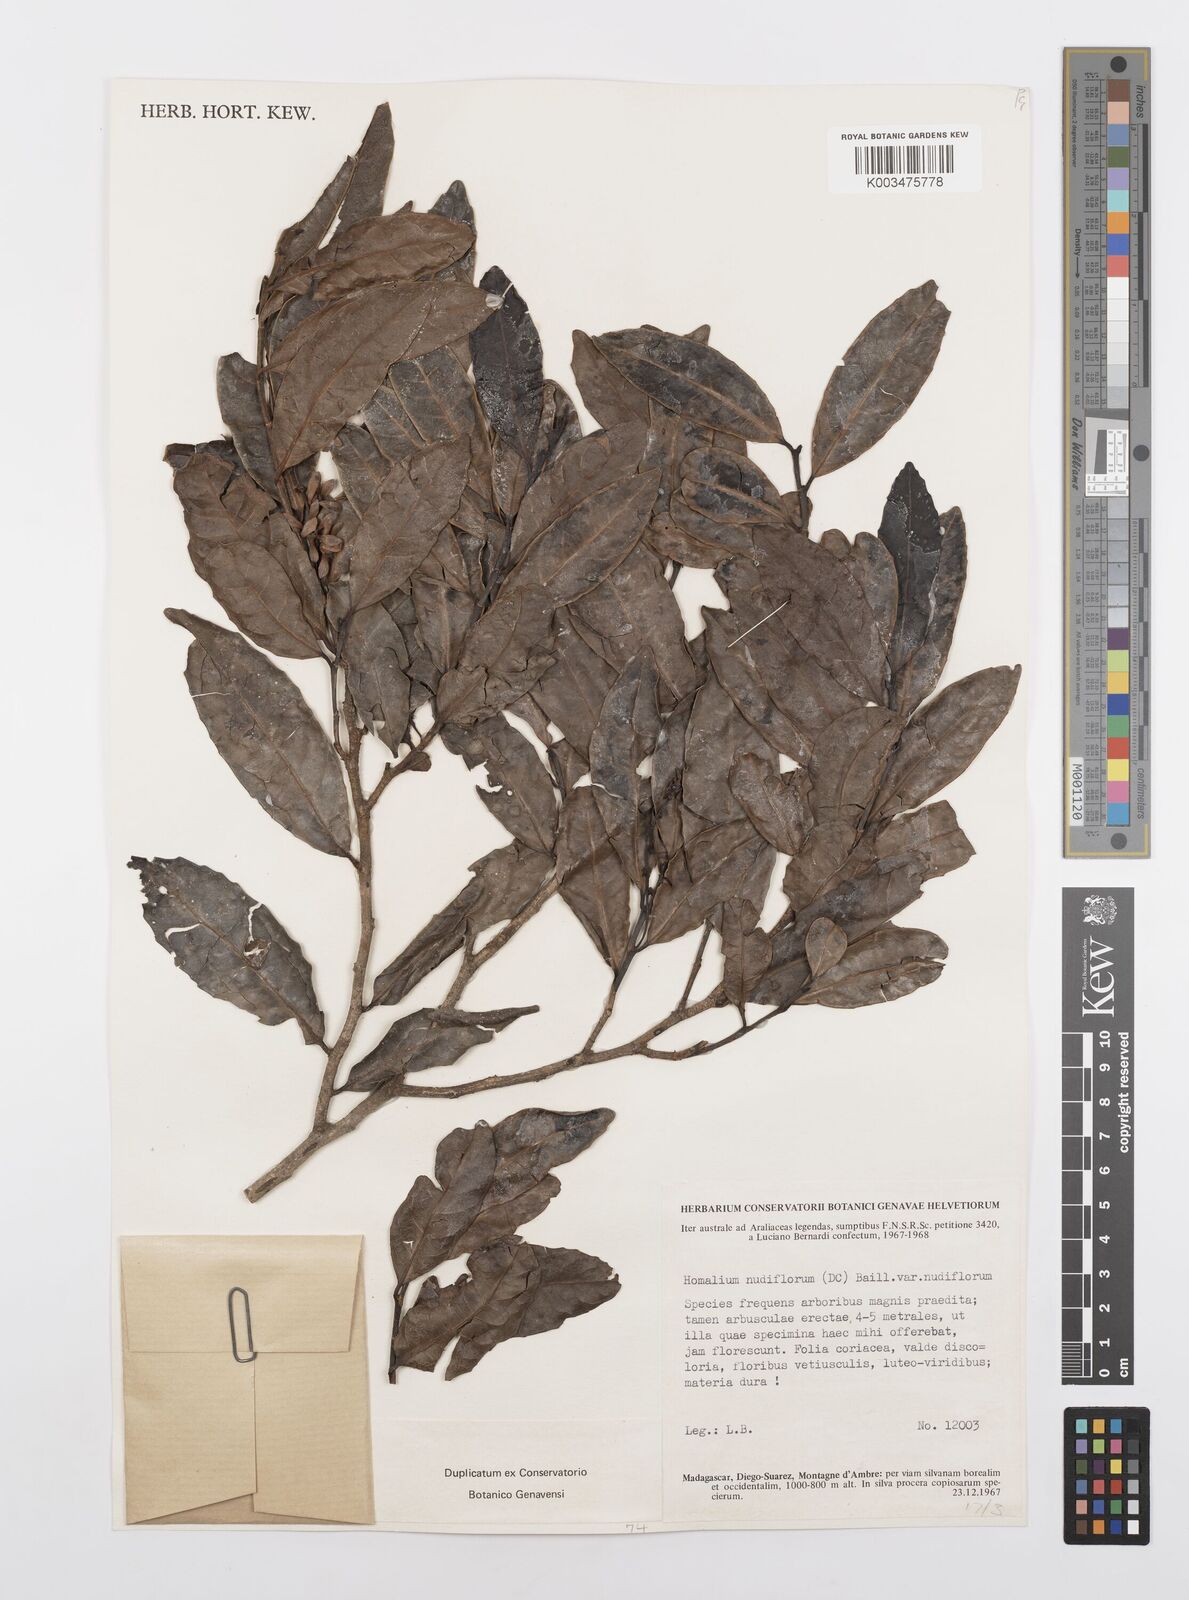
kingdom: Plantae
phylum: Tracheophyta
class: Magnoliopsida
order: Malpighiales
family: Salicaceae
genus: Homalium
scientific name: Homalium nudiflorum
